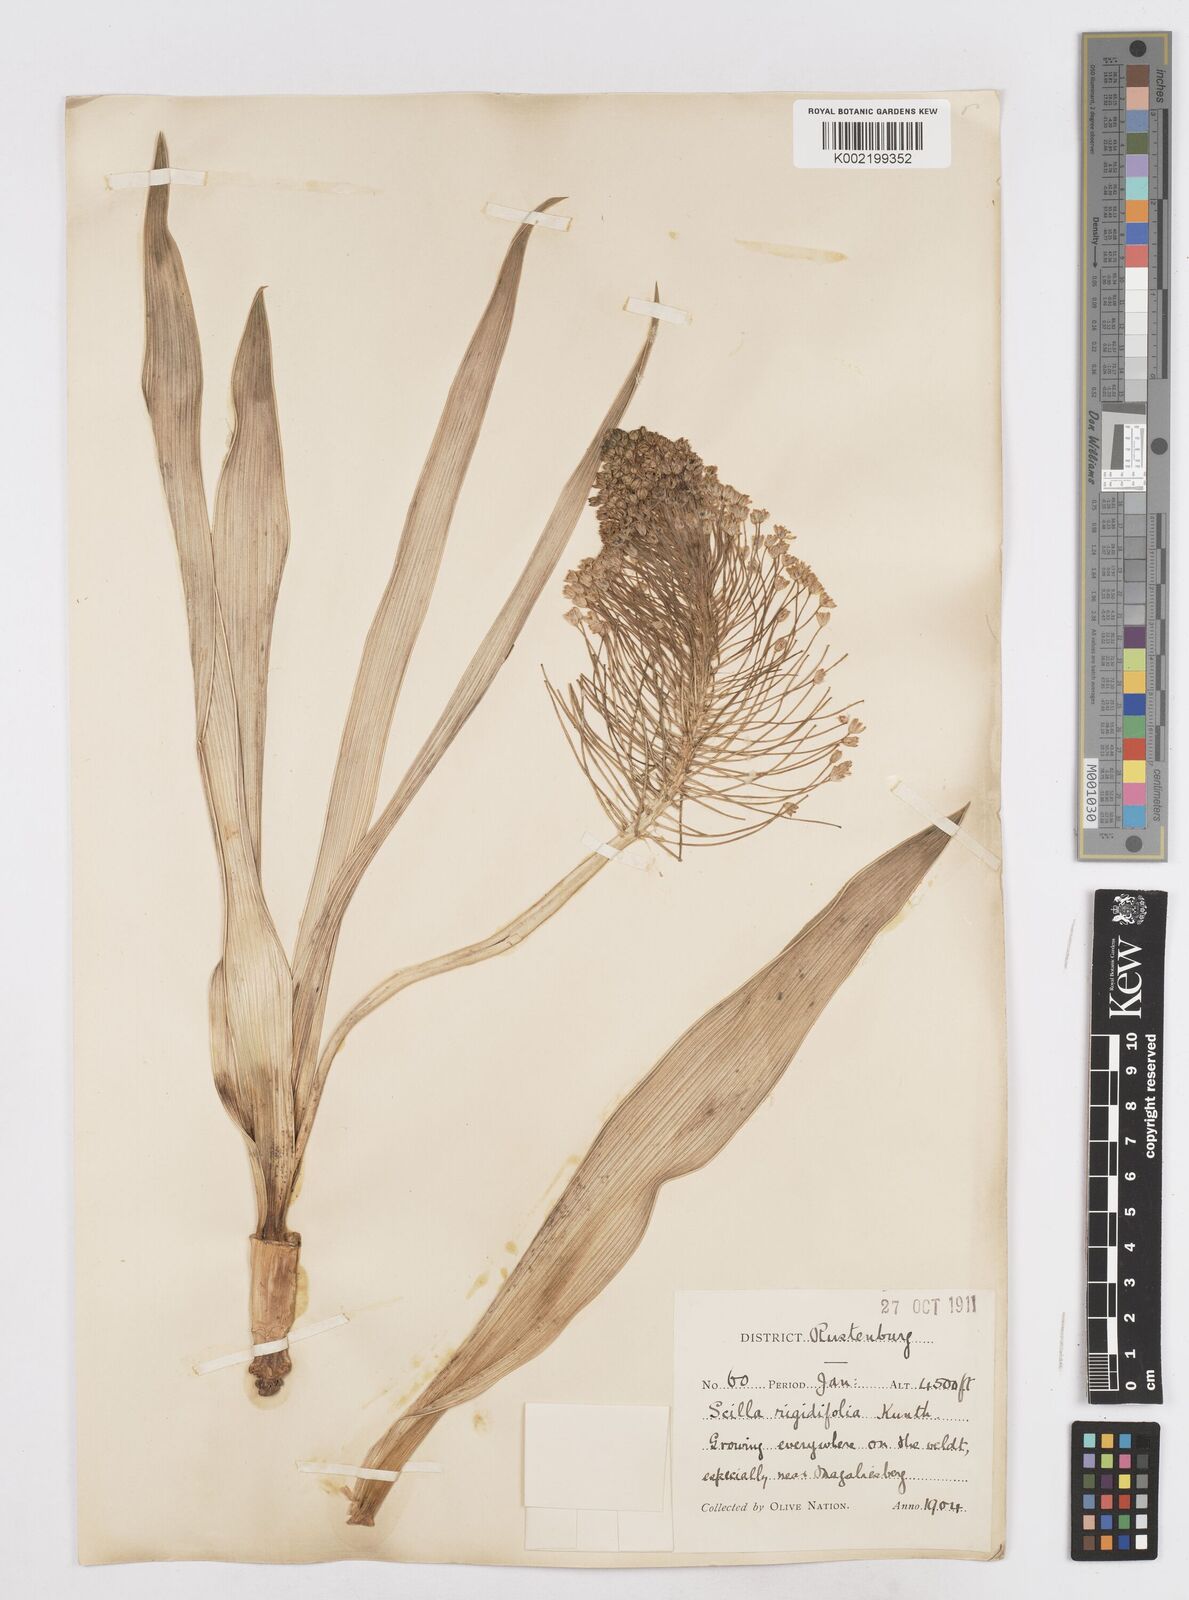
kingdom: Plantae
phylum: Tracheophyta
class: Liliopsida
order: Asparagales
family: Asparagaceae
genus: Schizocarphus
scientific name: Schizocarphus nervosus
